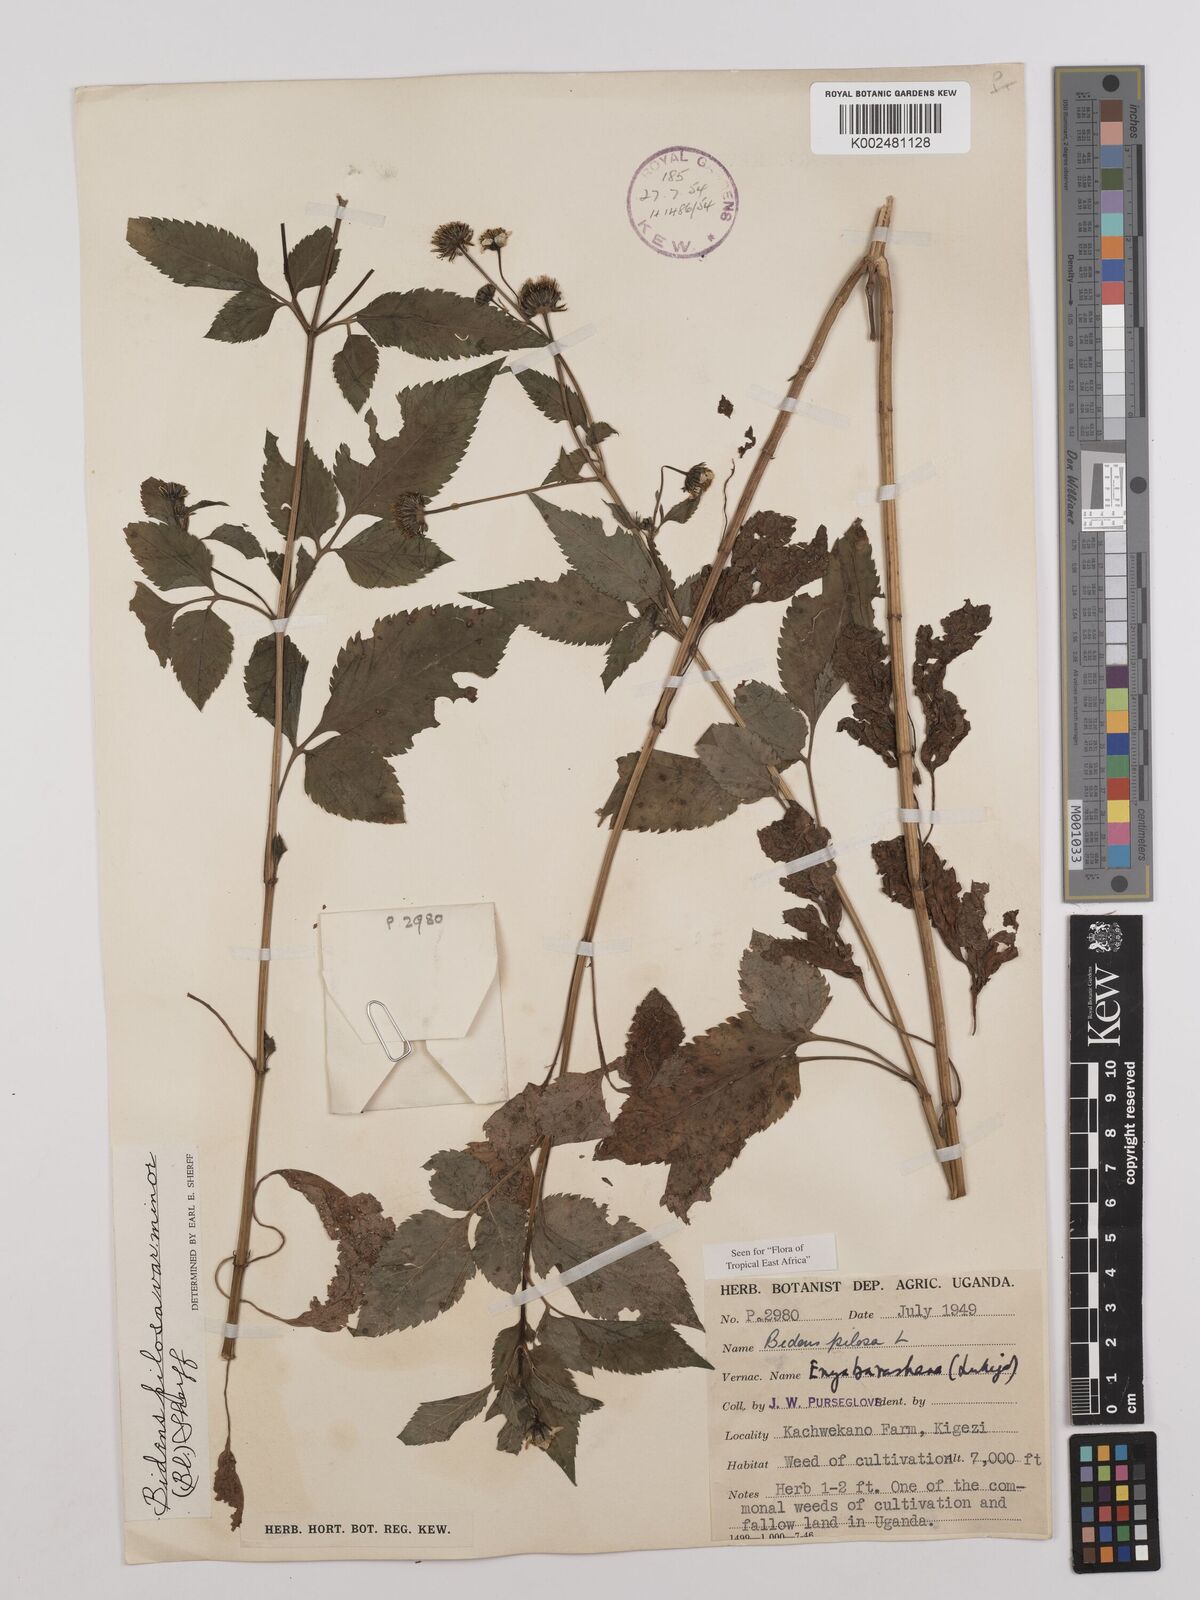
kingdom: Plantae
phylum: Tracheophyta
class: Magnoliopsida
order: Asterales
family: Asteraceae
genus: Bidens
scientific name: Bidens pilosa
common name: Black-jack
